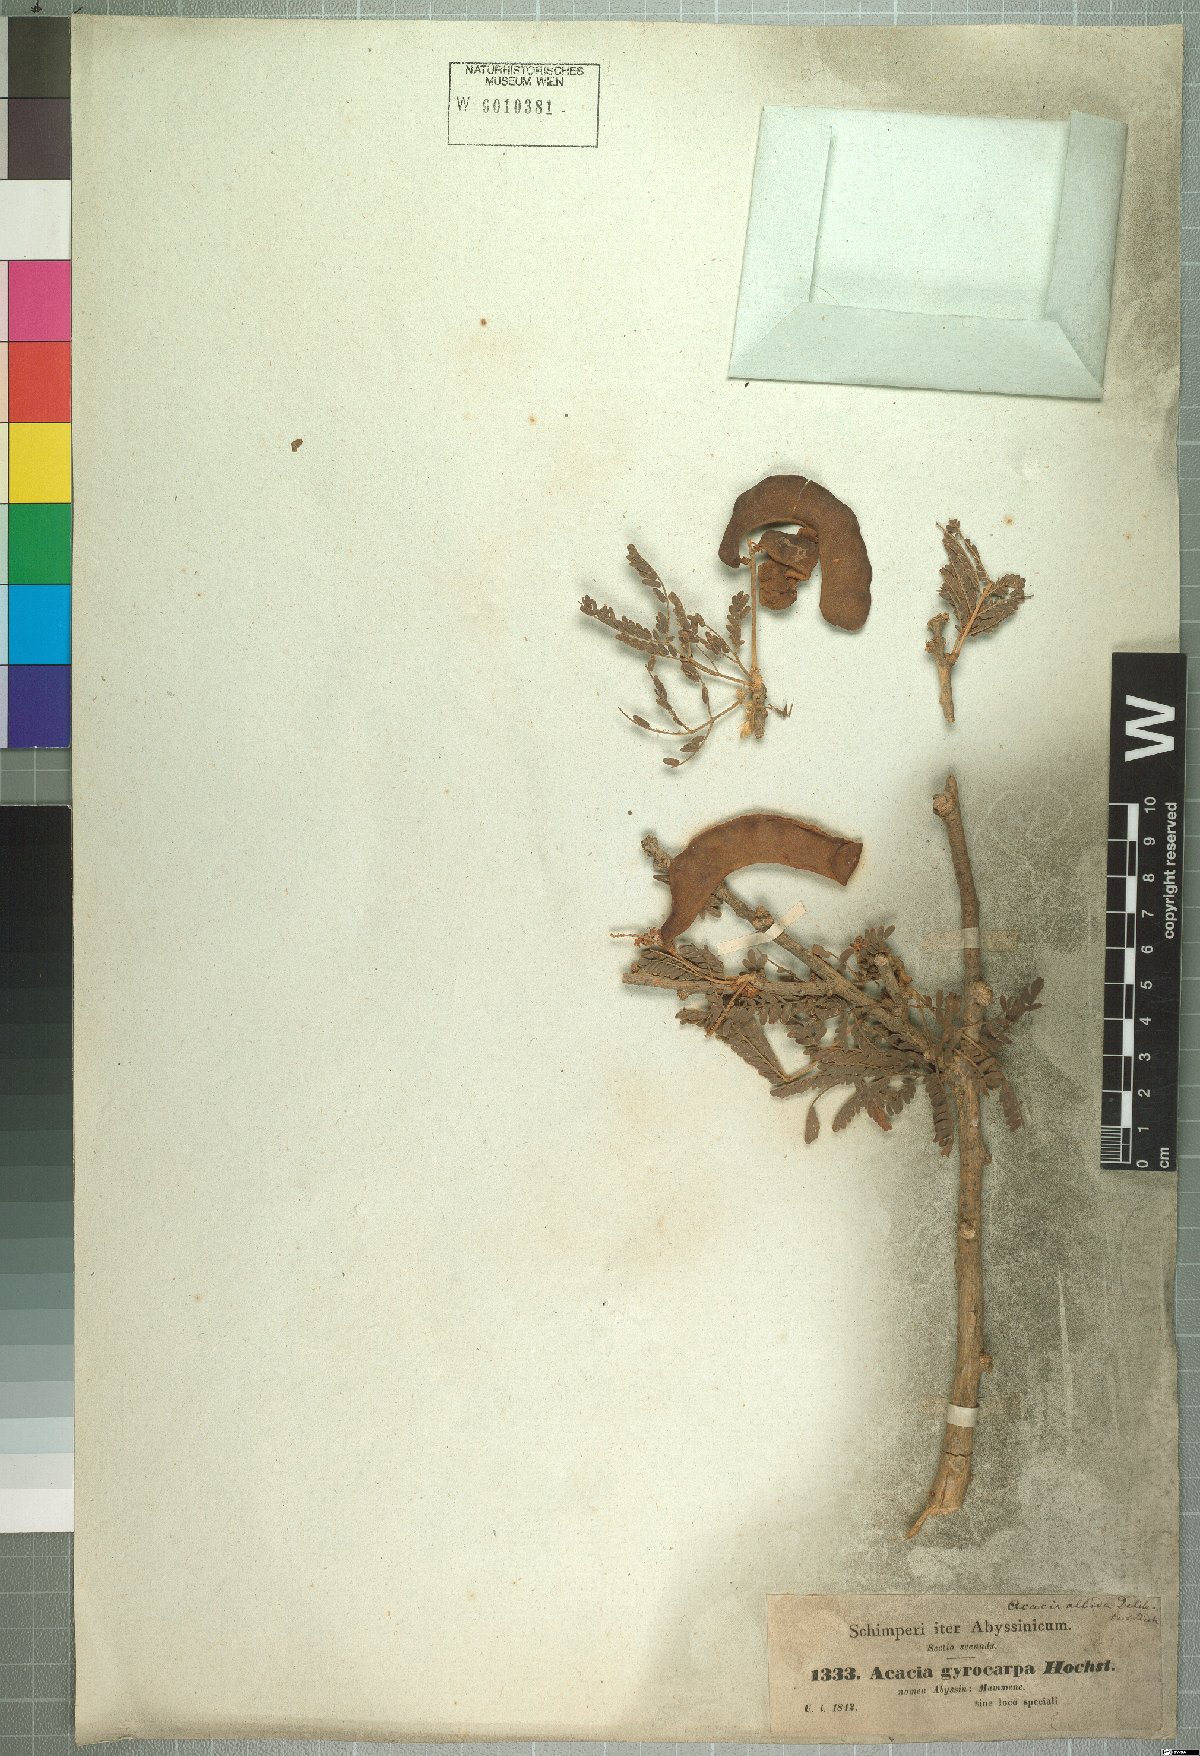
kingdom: Plantae
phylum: Tracheophyta
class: Magnoliopsida
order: Fabales
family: Fabaceae
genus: Faidherbia
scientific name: Faidherbia albida
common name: Anatree
